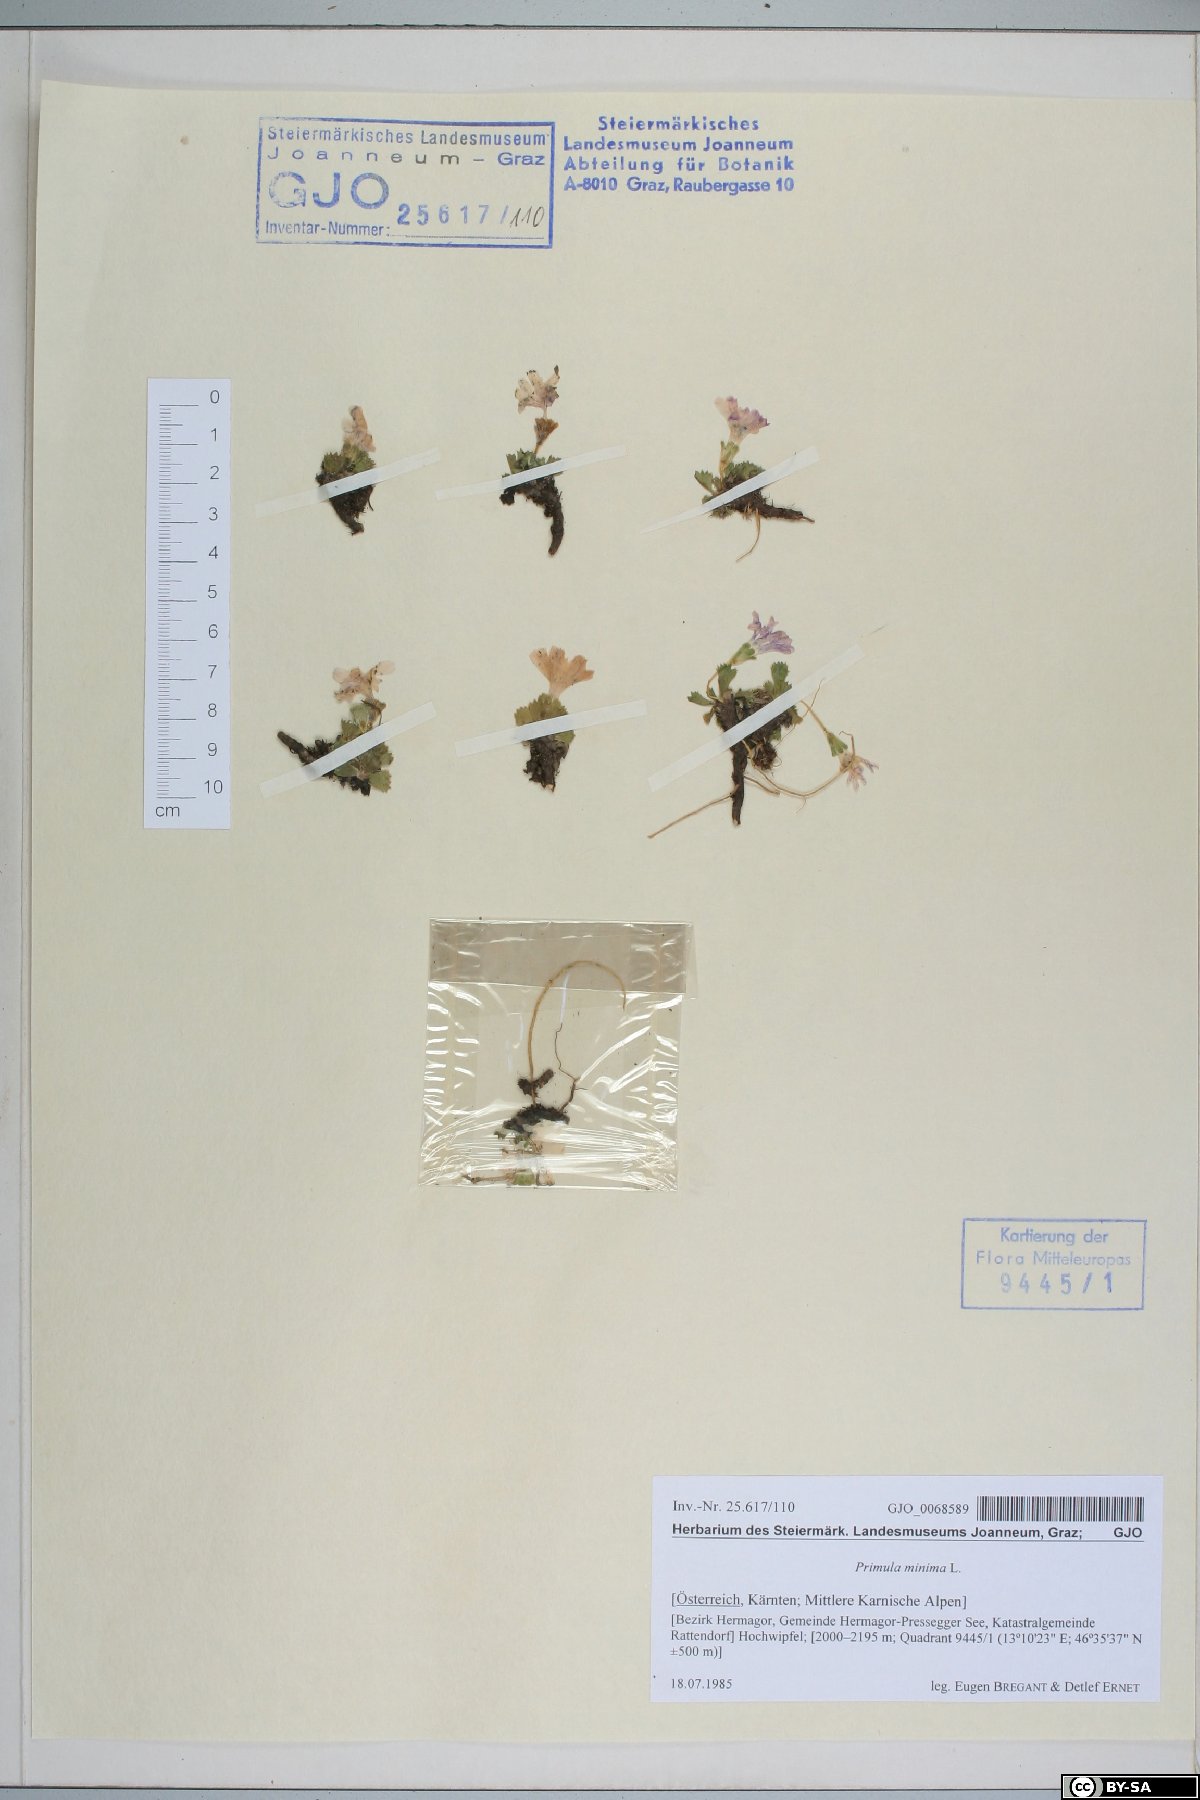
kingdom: Plantae
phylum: Tracheophyta
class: Magnoliopsida
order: Ericales
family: Primulaceae
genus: Primula
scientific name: Primula minima
